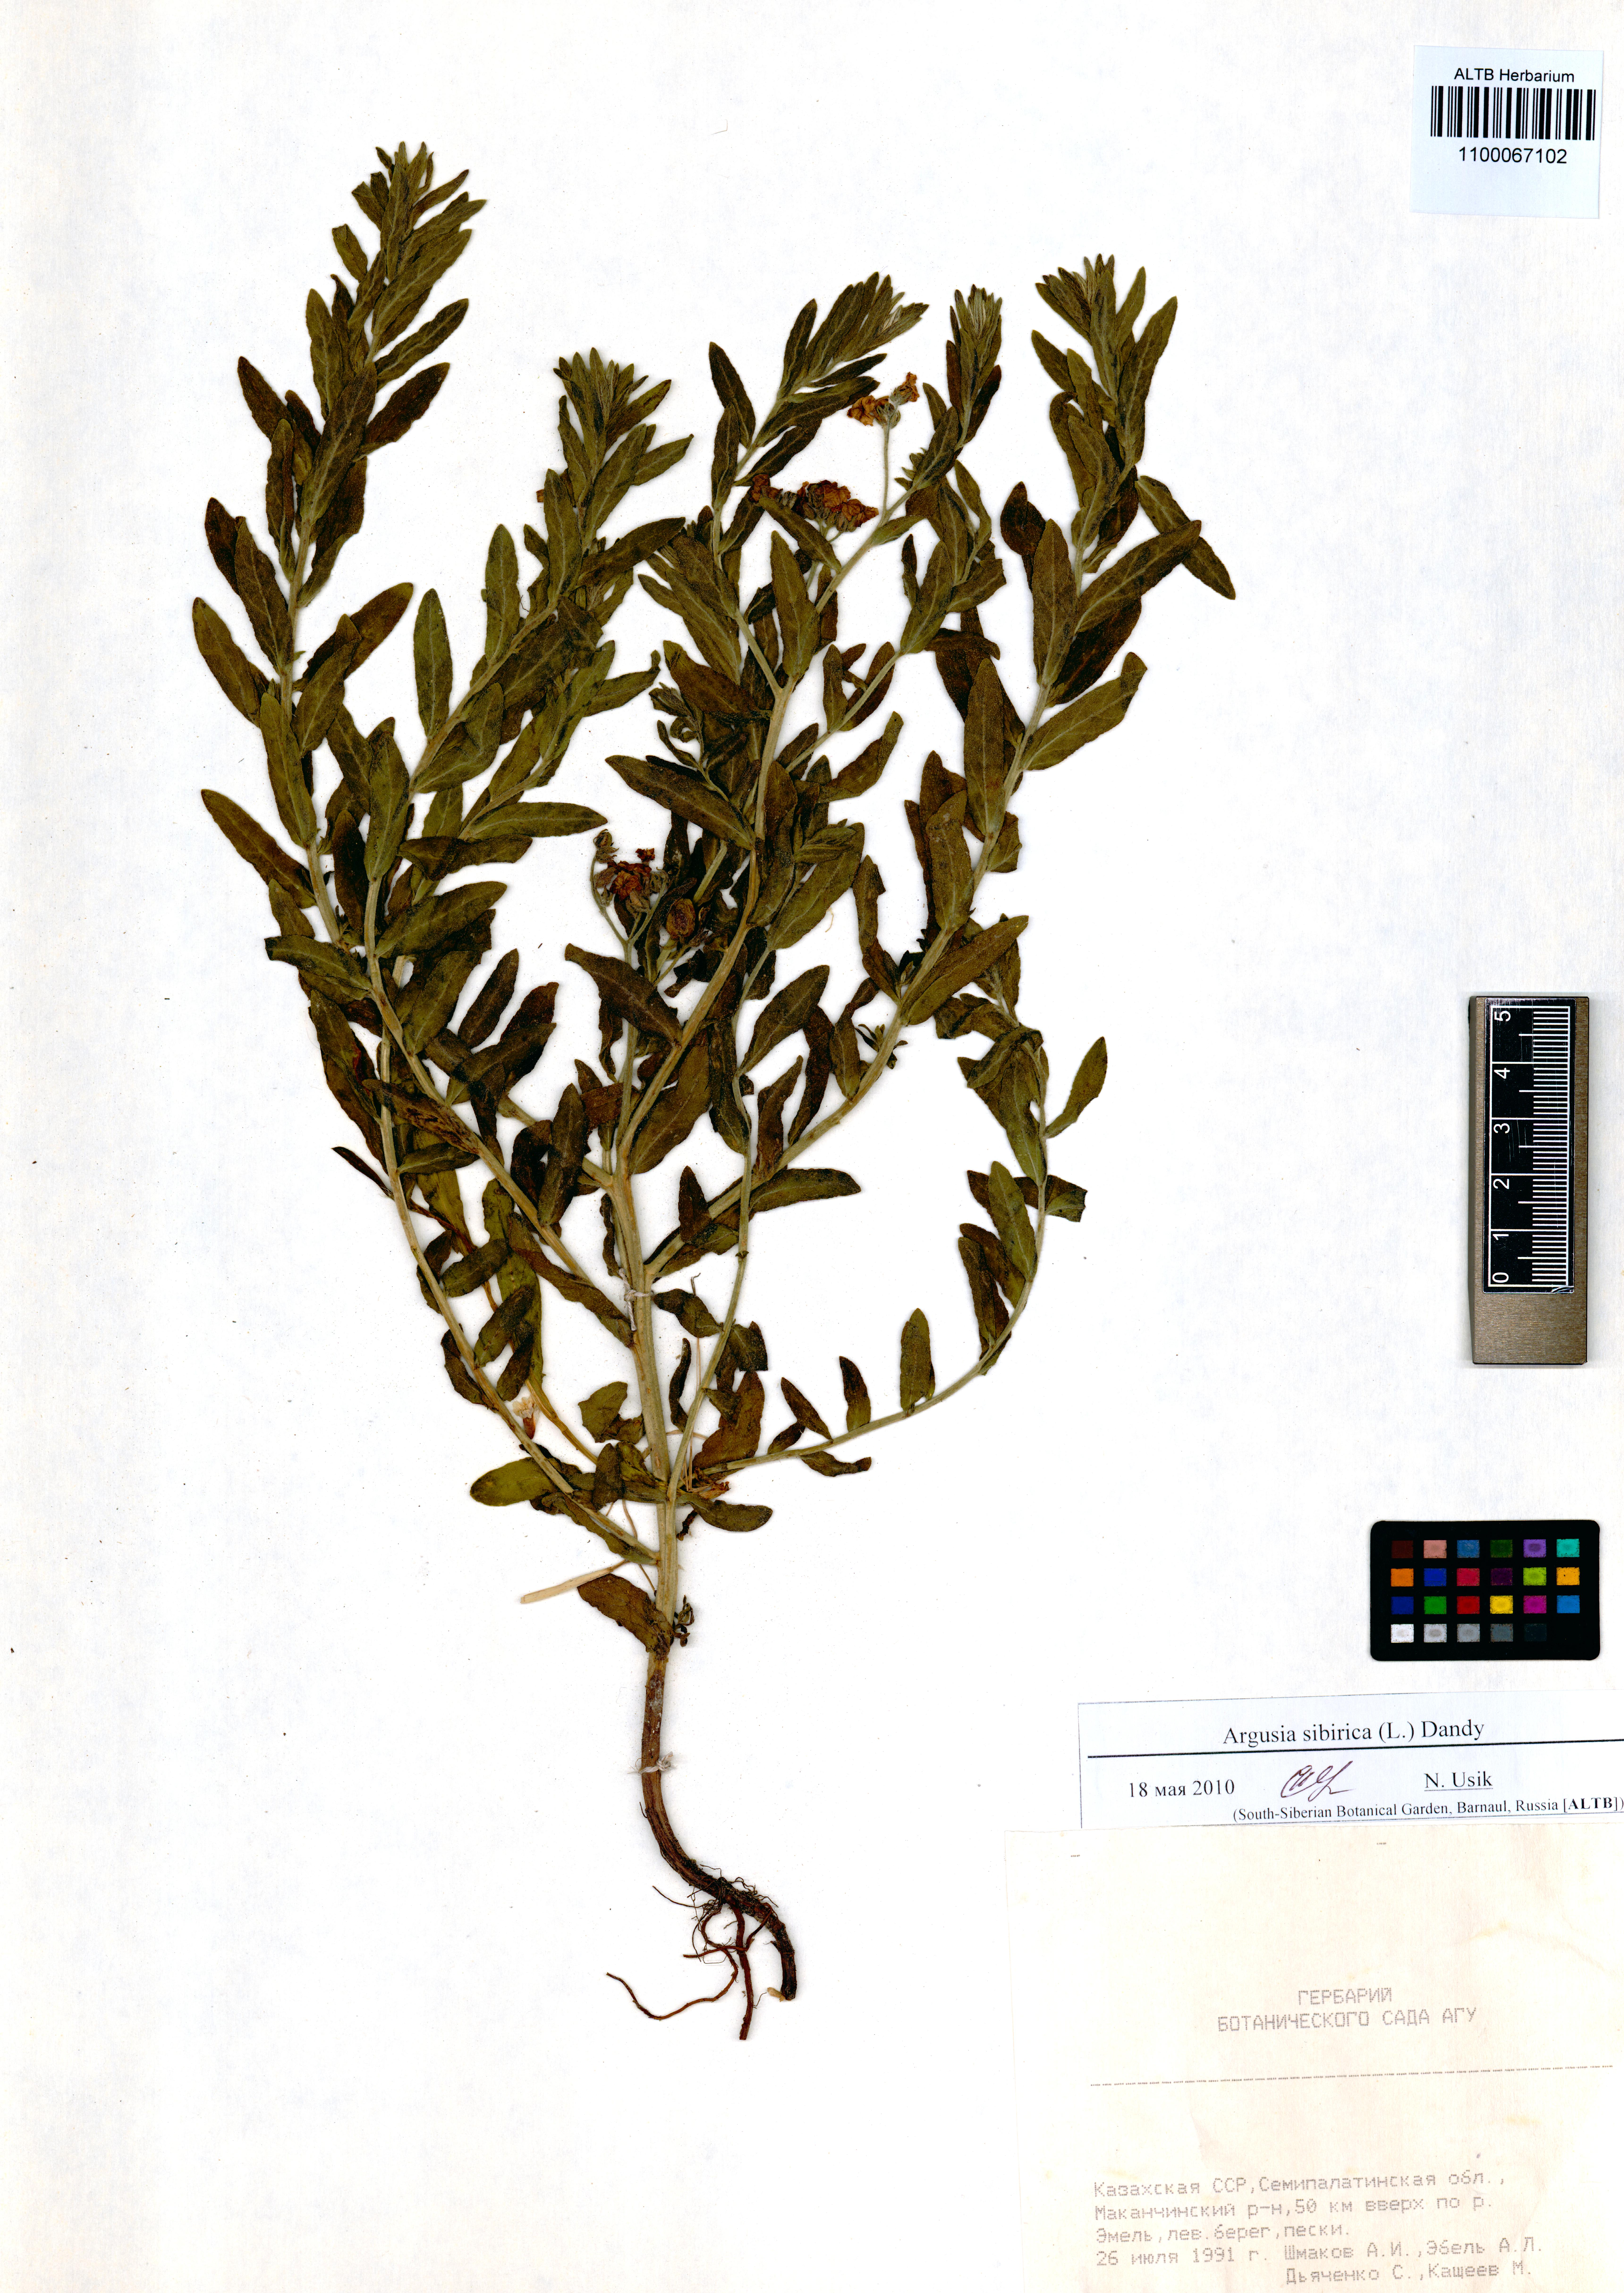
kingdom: Plantae
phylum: Tracheophyta
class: Magnoliopsida
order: Boraginales
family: Heliotropiaceae
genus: Tournefortia
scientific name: Tournefortia sibirica
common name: Siberian sea rosemary
